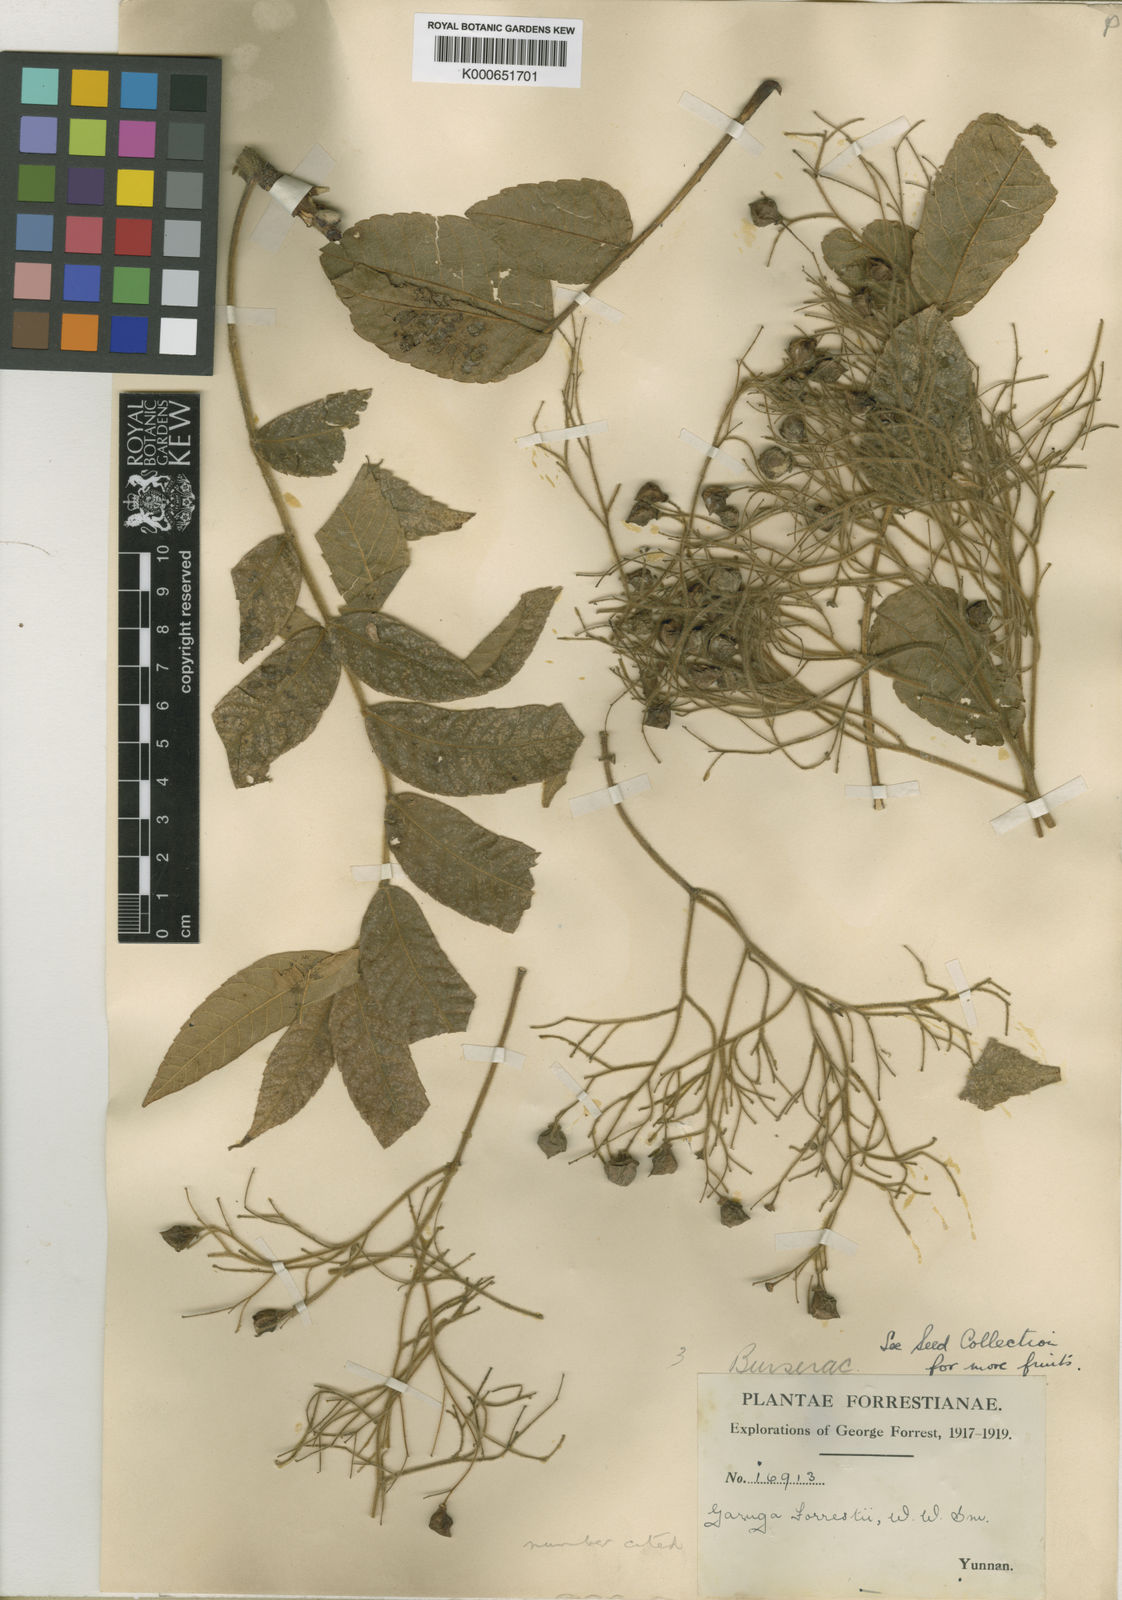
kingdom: Plantae
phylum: Tracheophyta
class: Magnoliopsida
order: Sapindales
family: Burseraceae
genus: Garuga
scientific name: Garuga forrestii
